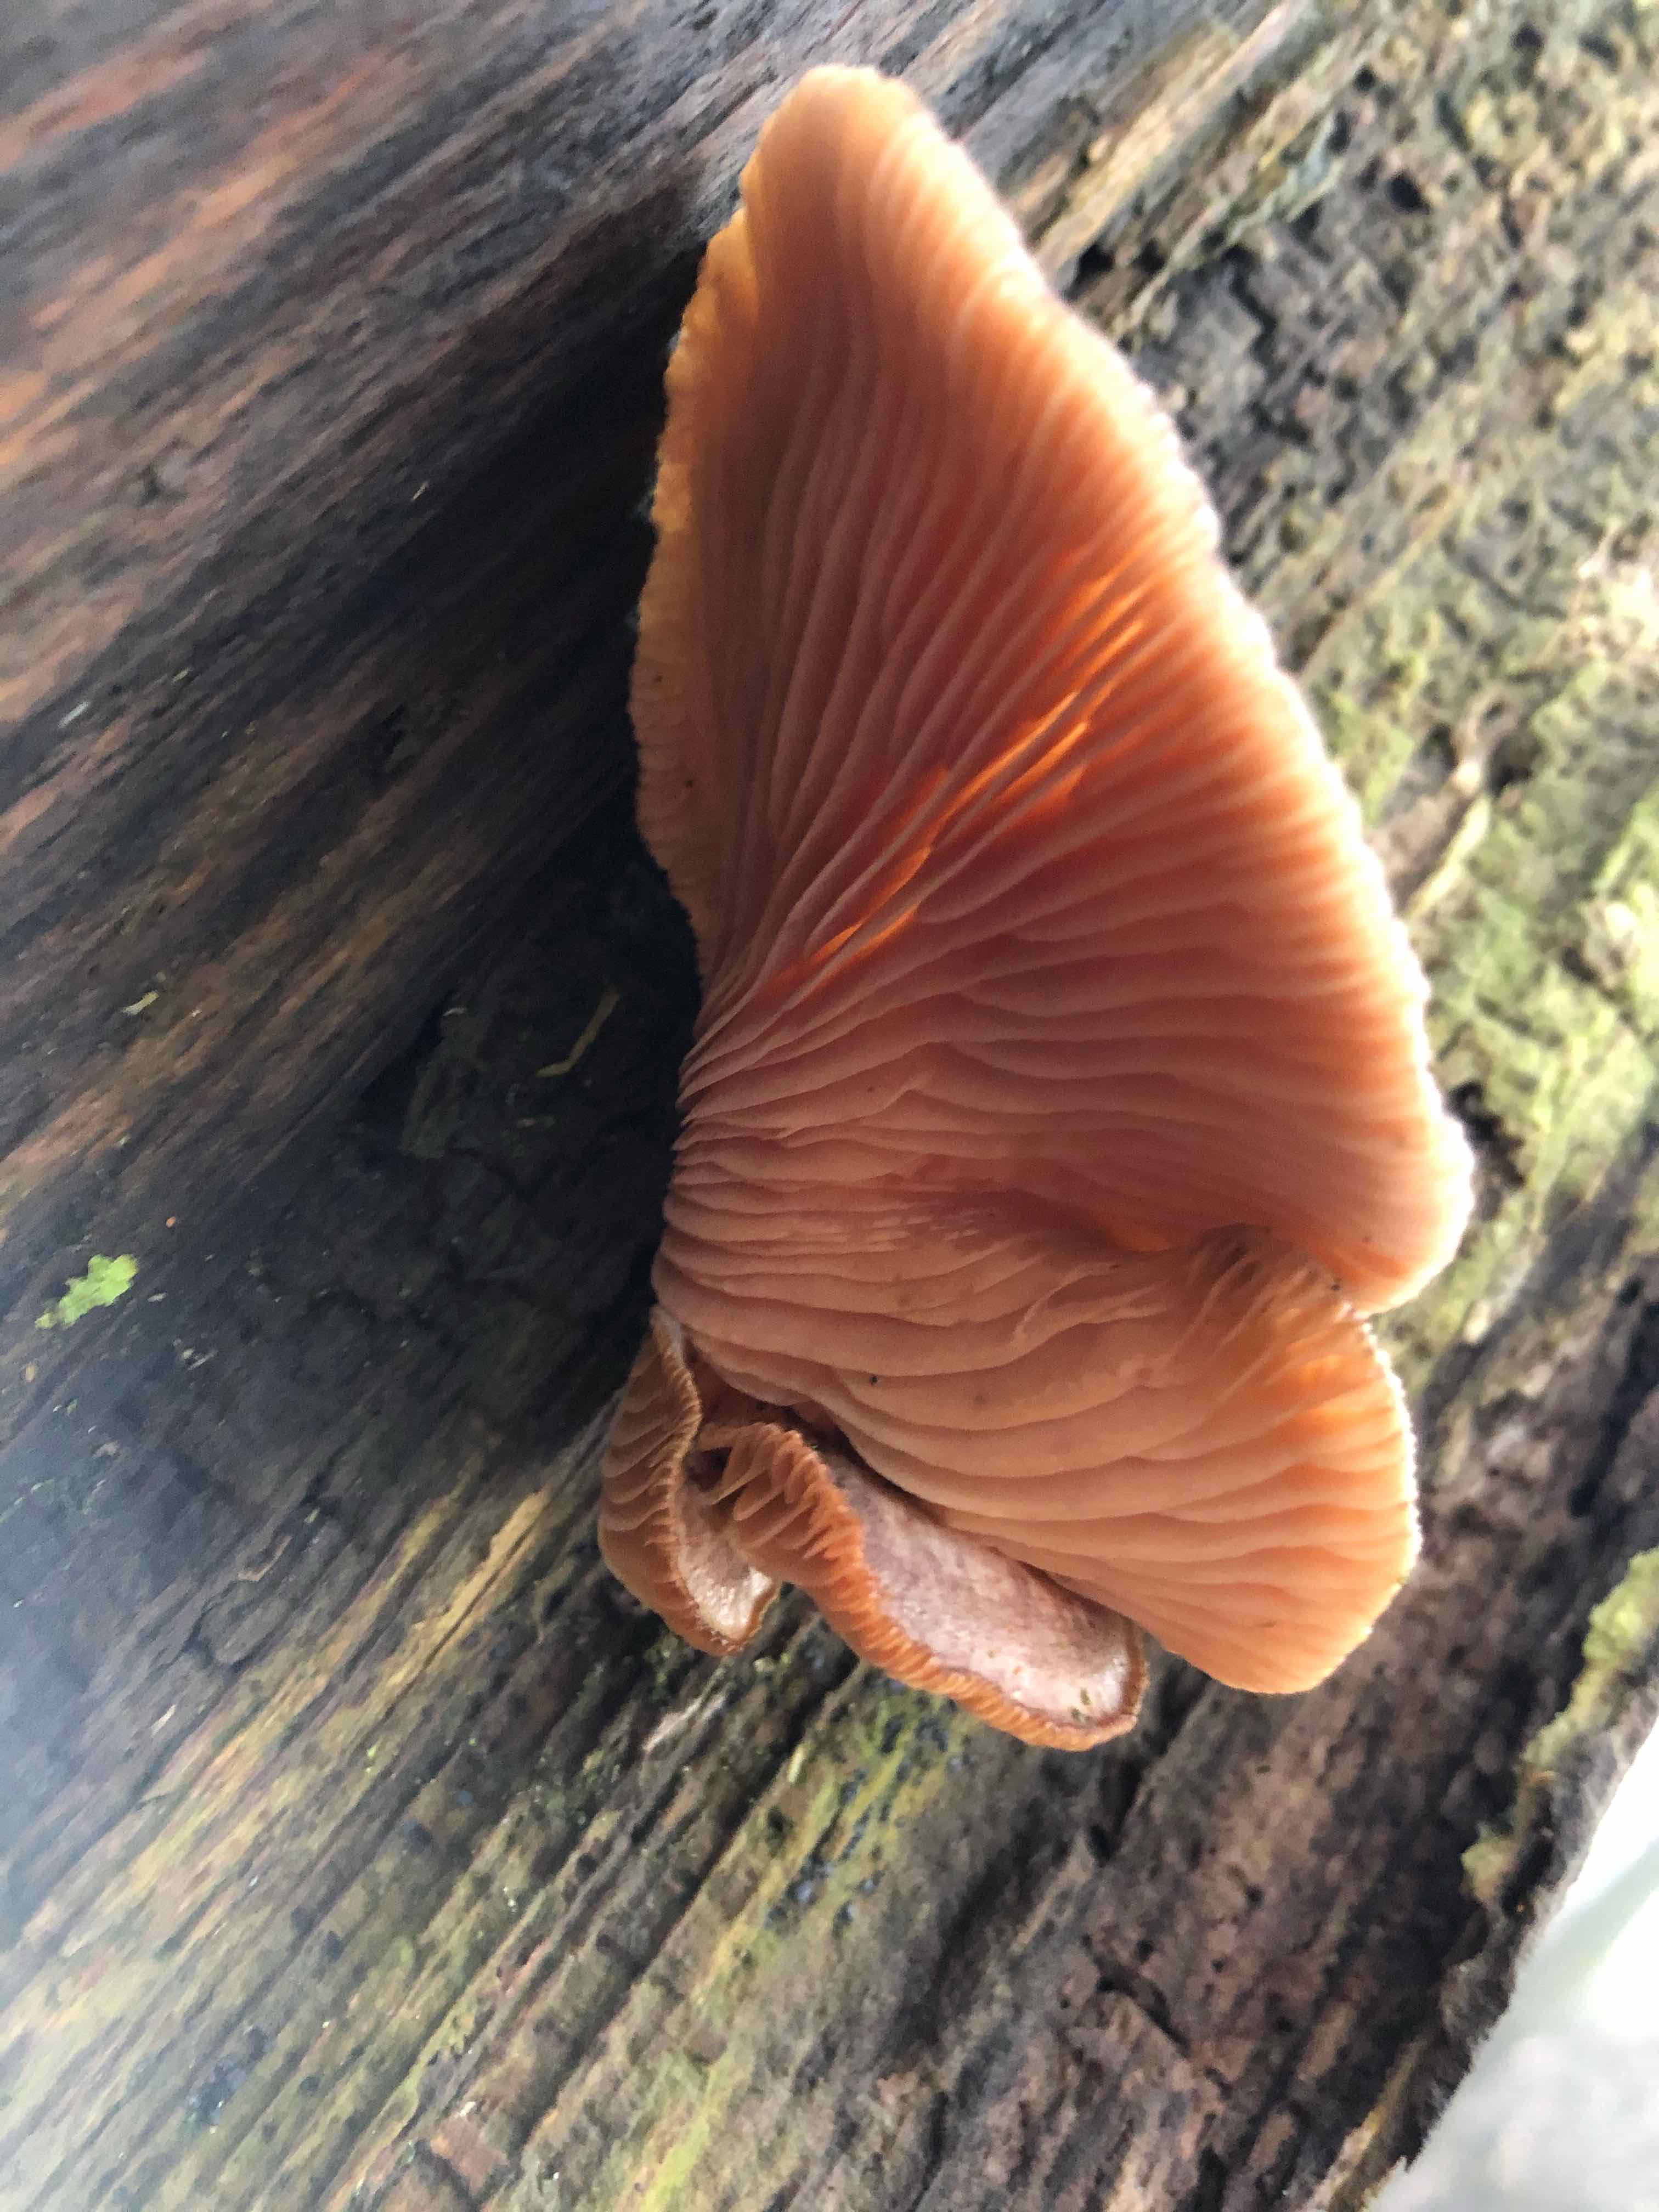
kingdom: Fungi
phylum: Basidiomycota
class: Agaricomycetes
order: Agaricales
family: Sarcomyxaceae
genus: Sarcomyxa
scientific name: Sarcomyxa serotina
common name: gummihat
